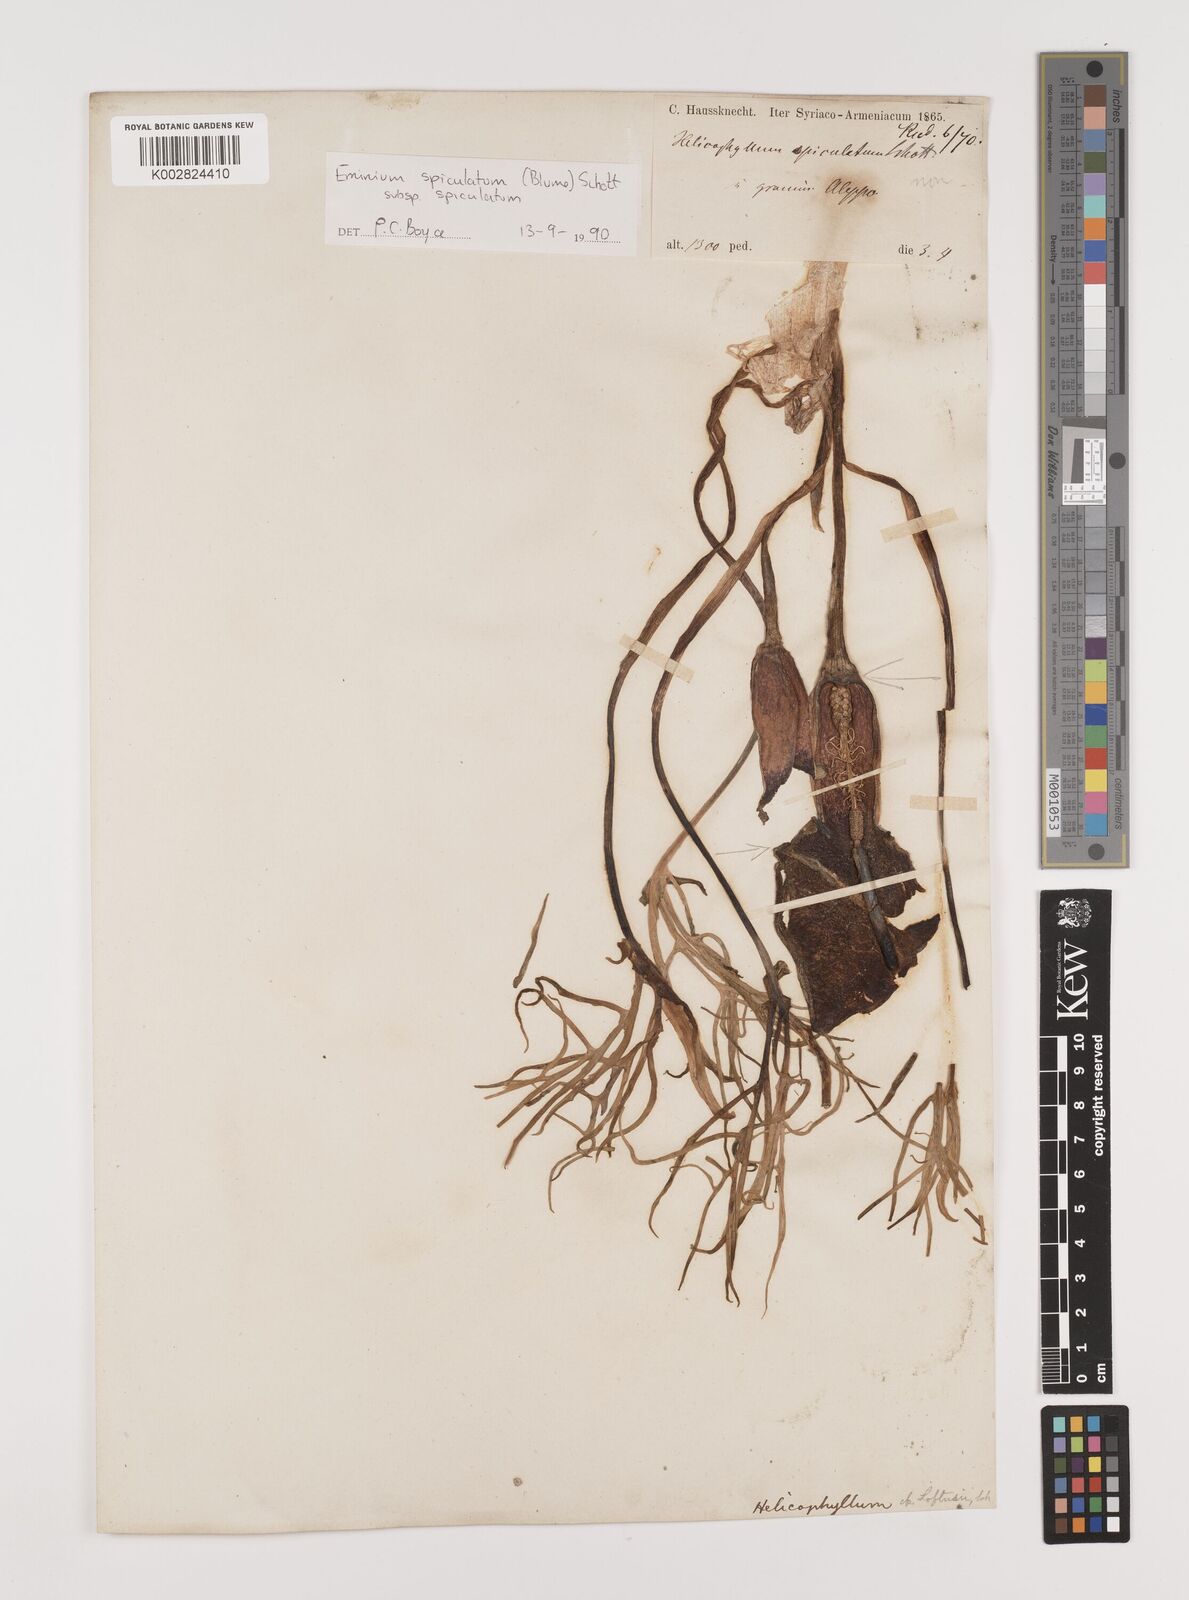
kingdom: Plantae
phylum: Tracheophyta
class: Liliopsida
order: Alismatales
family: Araceae
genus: Eminium
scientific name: Eminium spiculatum
